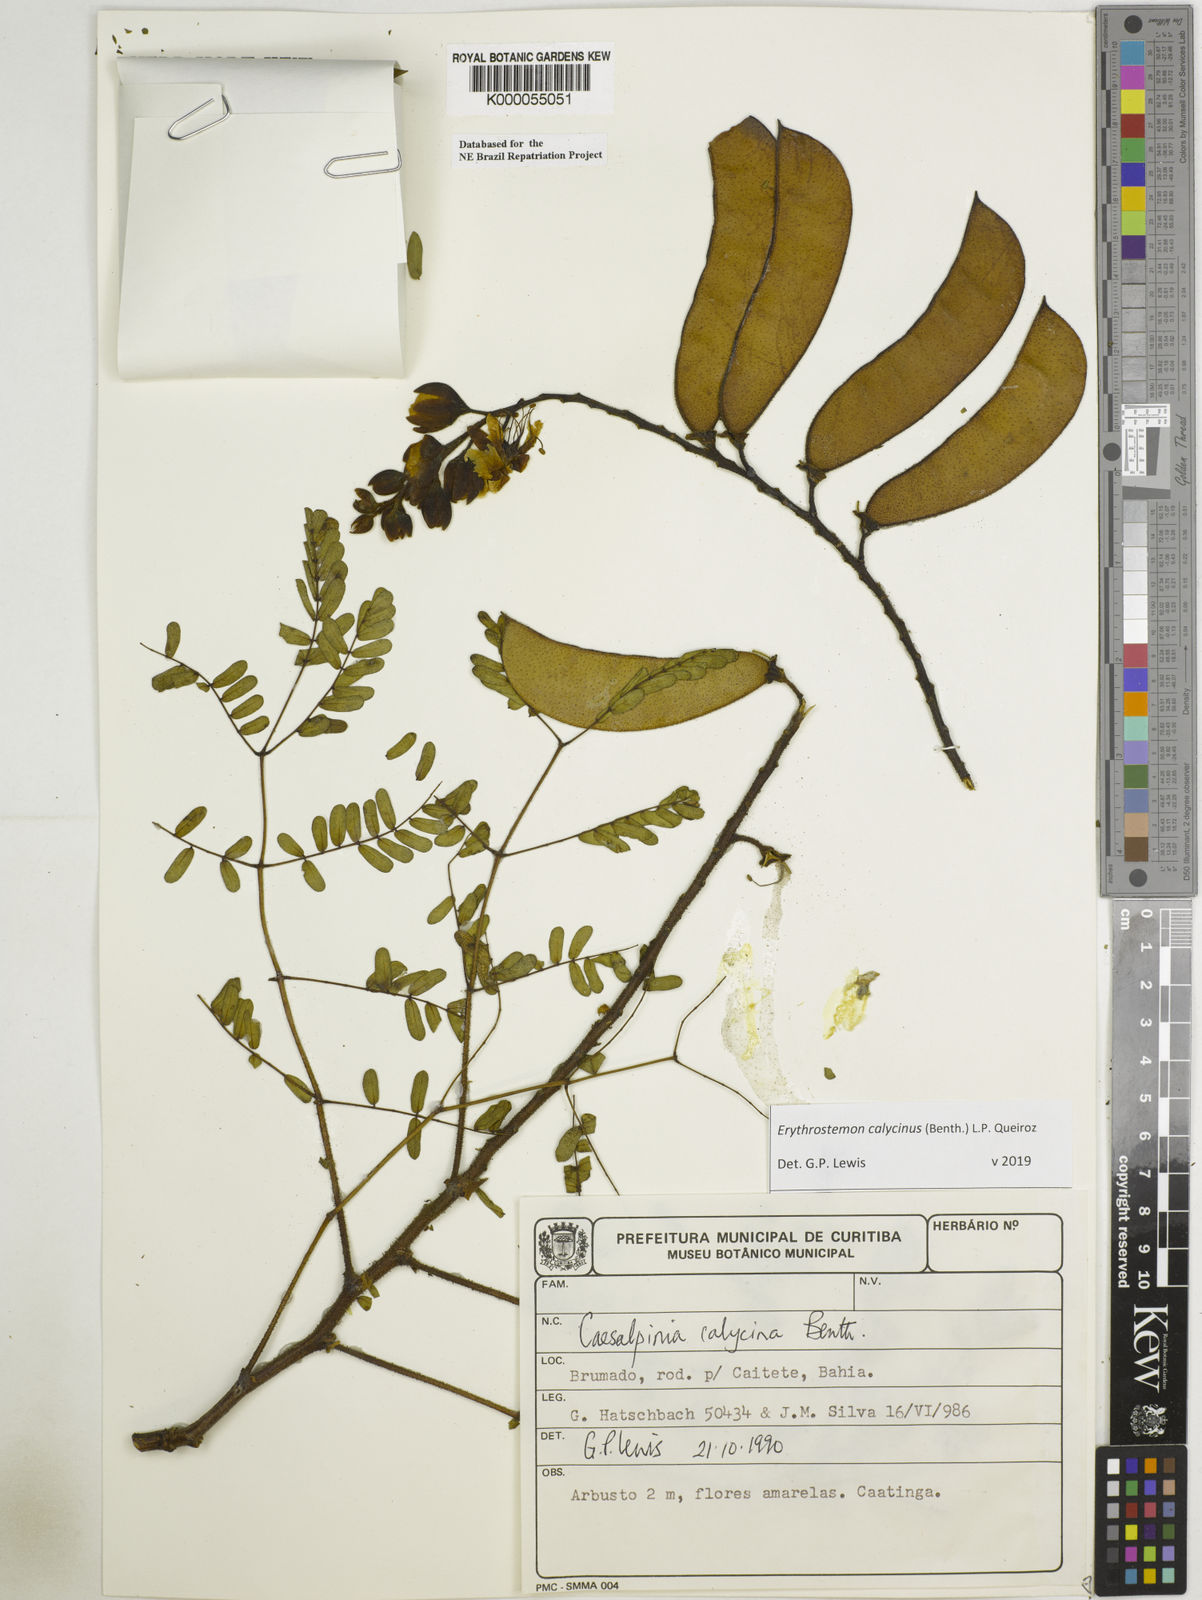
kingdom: Plantae
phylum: Tracheophyta
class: Magnoliopsida
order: Fabales
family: Fabaceae
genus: Erythrostemon
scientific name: Erythrostemon calycinus
